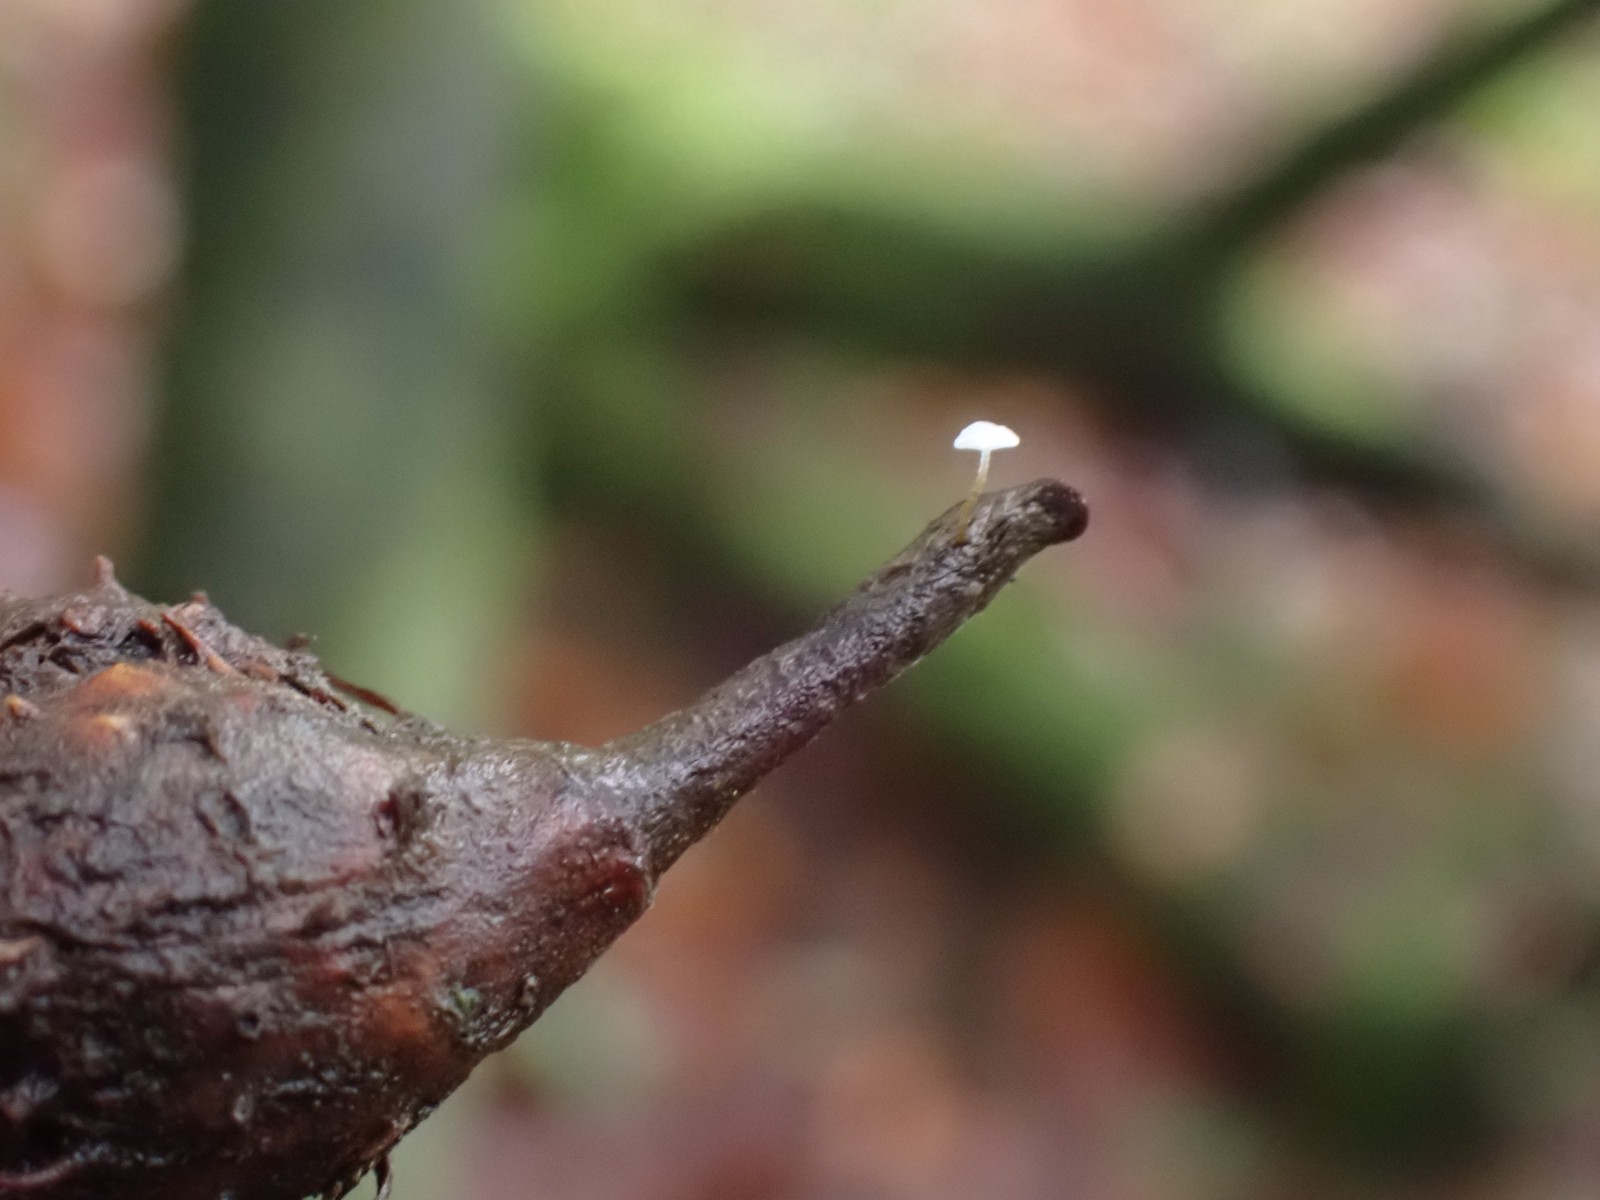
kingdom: Fungi
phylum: Basidiomycota
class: Agaricomycetes
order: Agaricales
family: Physalacriaceae
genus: Rhizomarasmius
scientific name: Rhizomarasmius setosus
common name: bøgeblads-bruskhat
